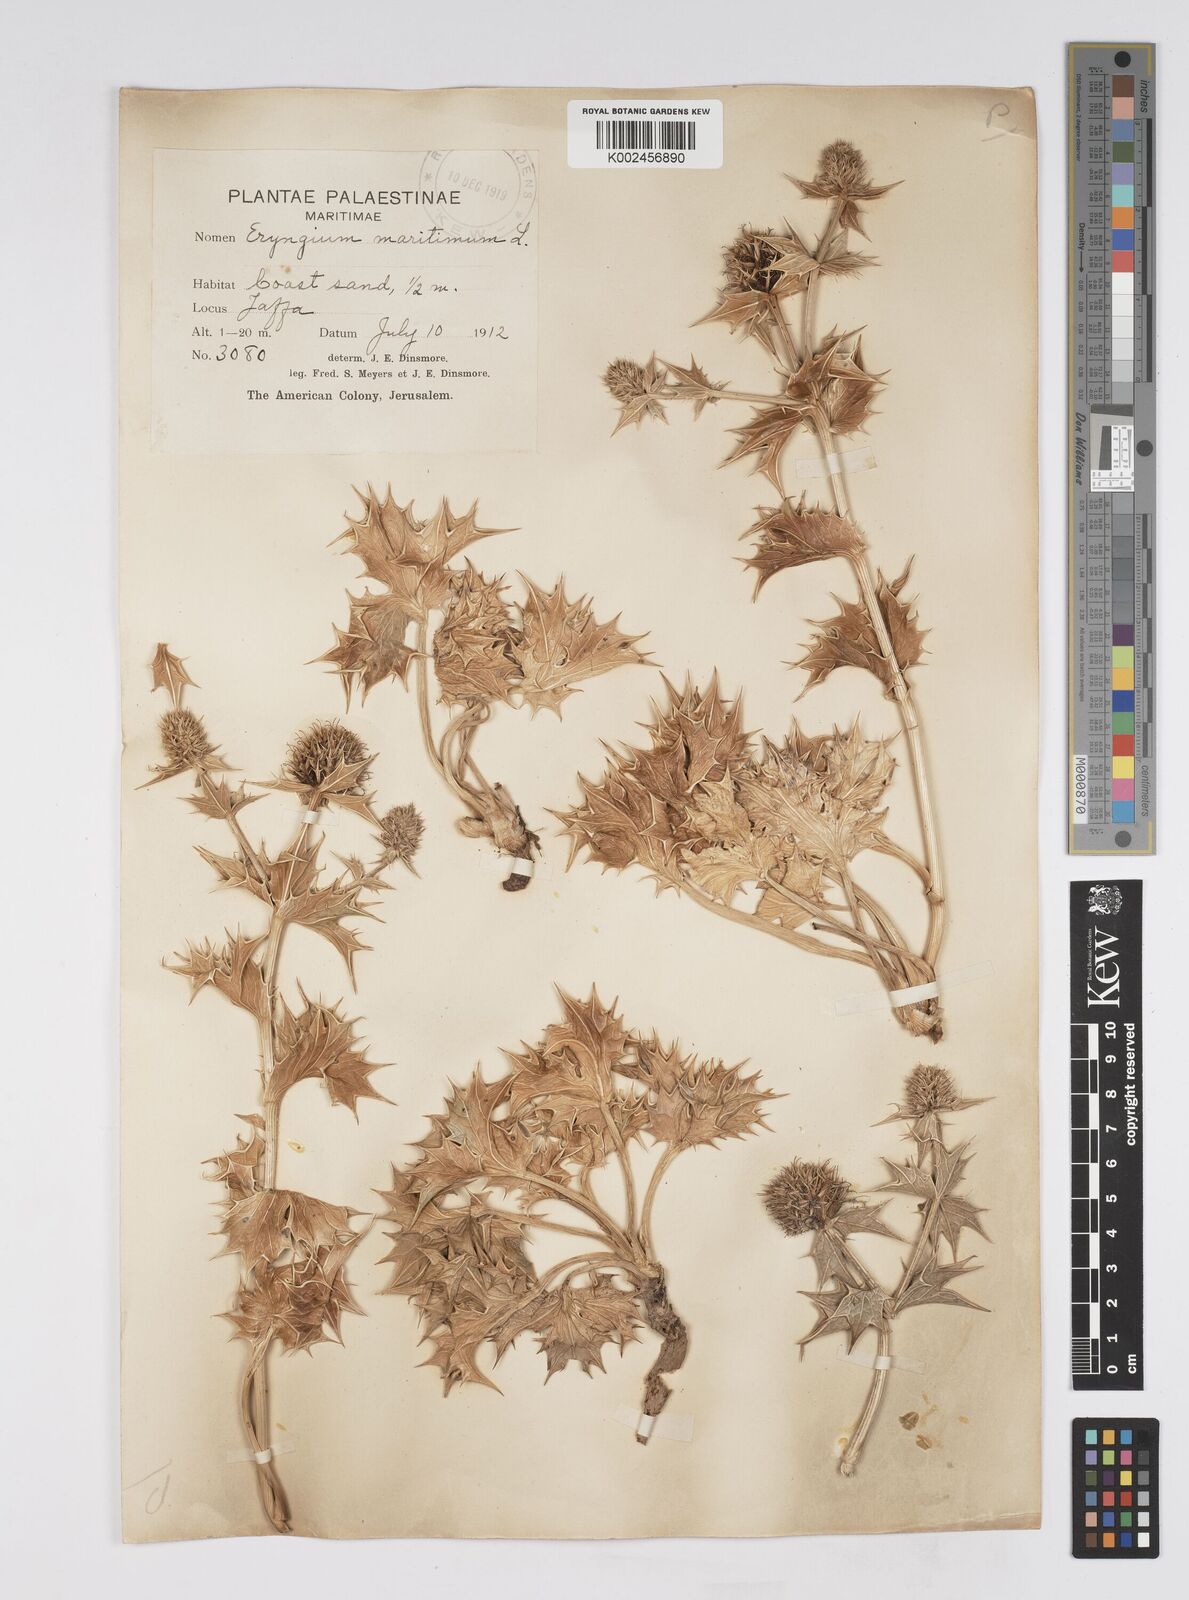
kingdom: Plantae
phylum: Tracheophyta
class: Magnoliopsida
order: Apiales
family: Apiaceae
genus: Eryngium
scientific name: Eryngium maritimum
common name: Sea-holly
